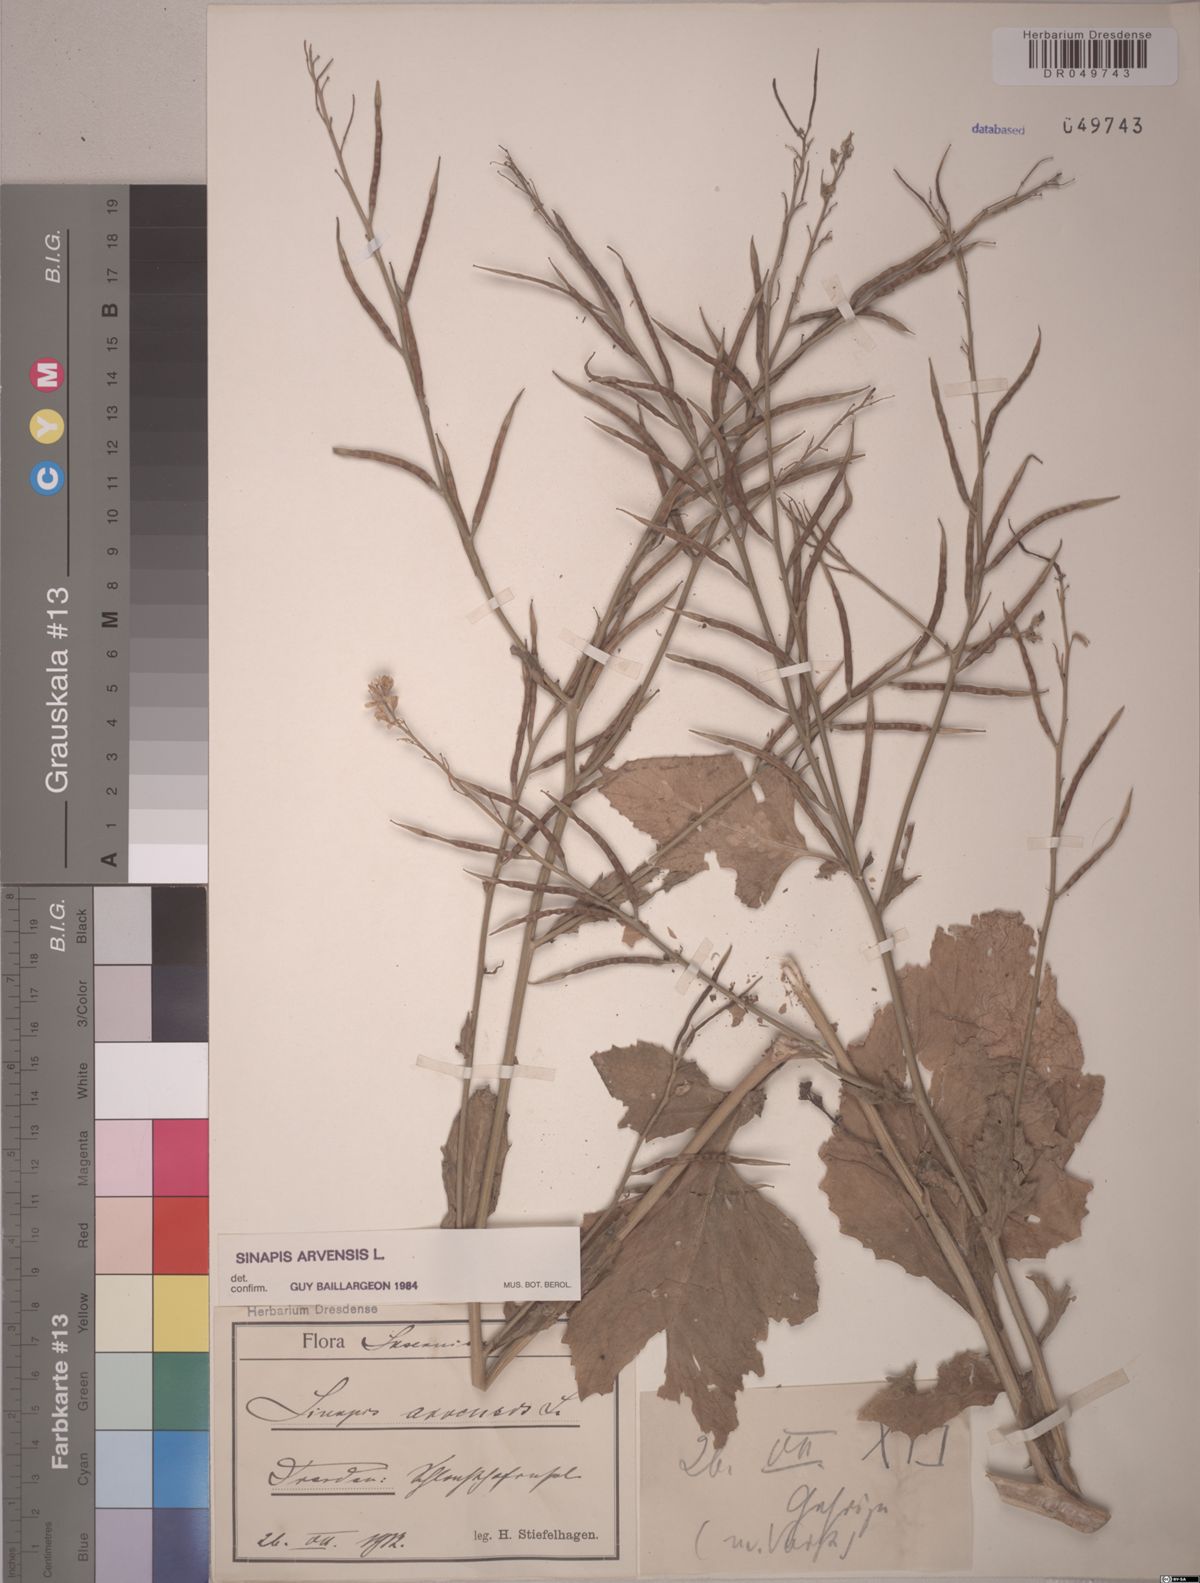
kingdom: Plantae
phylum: Tracheophyta
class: Magnoliopsida
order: Brassicales
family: Brassicaceae
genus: Sinapis
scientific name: Sinapis arvensis
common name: Charlock
